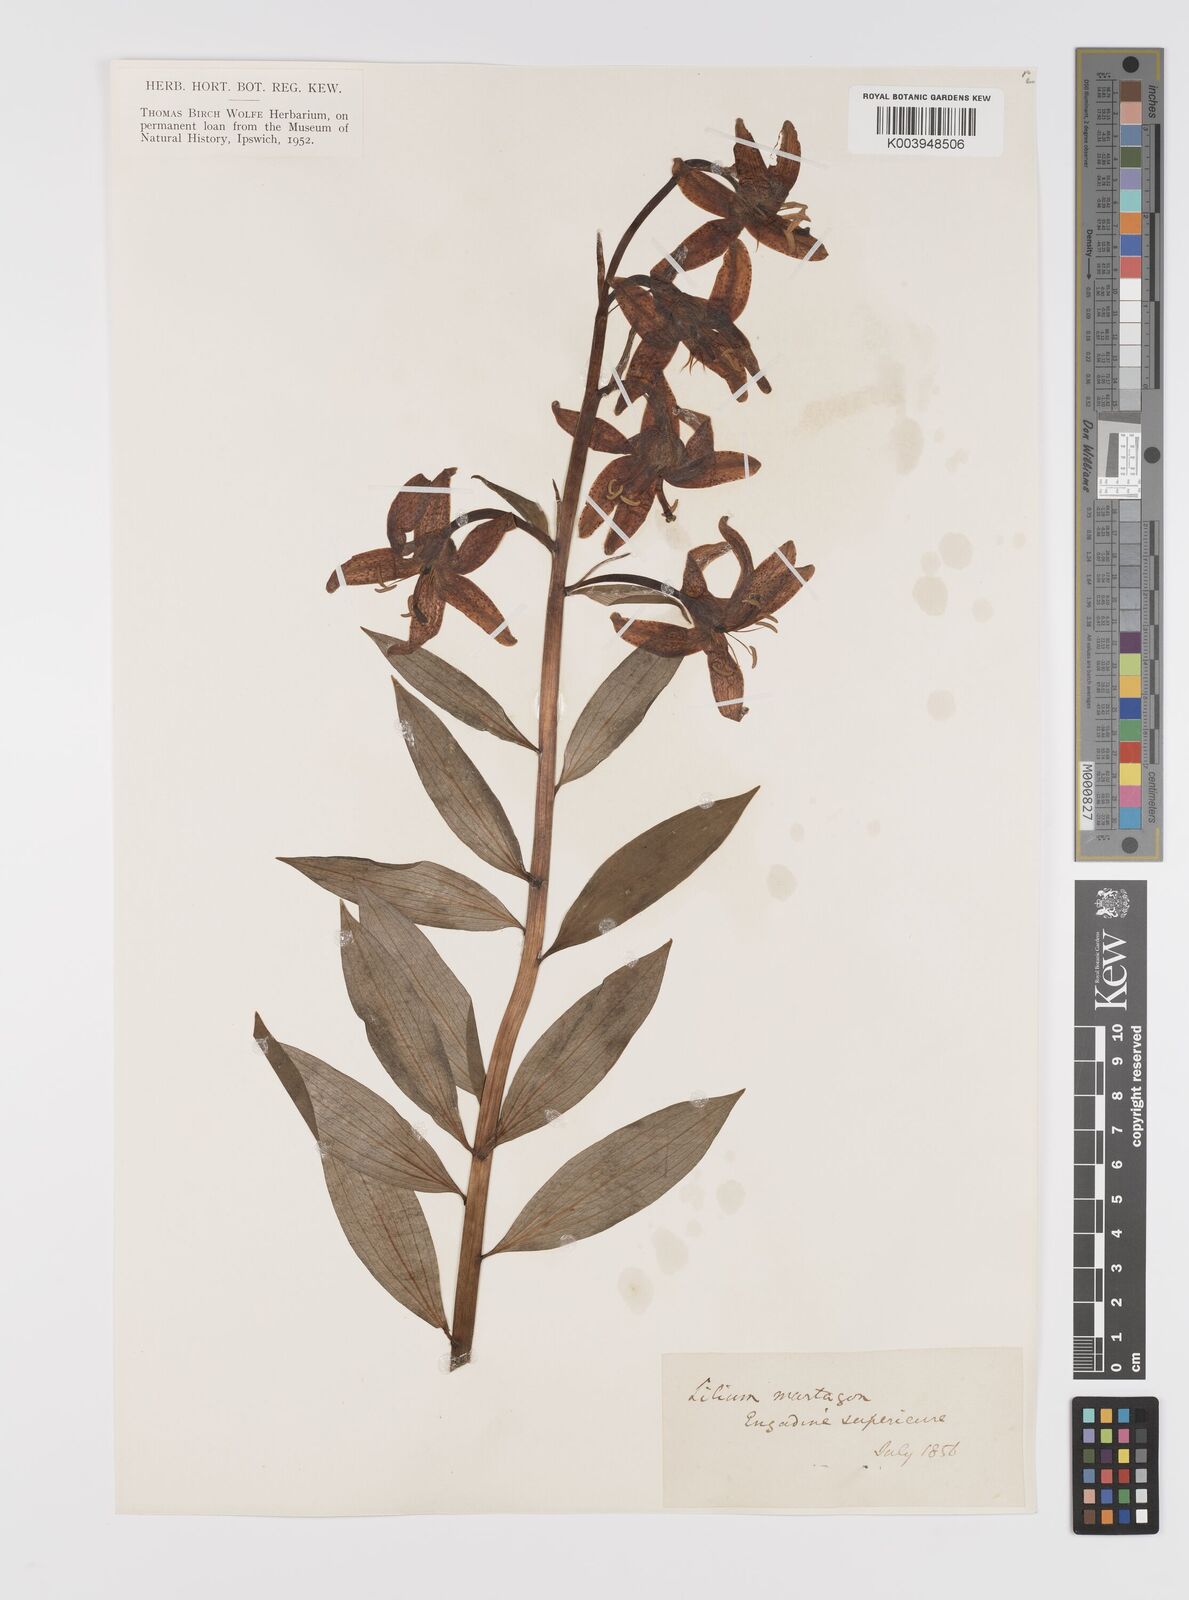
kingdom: Plantae
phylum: Tracheophyta
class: Liliopsida
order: Liliales
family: Liliaceae
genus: Lilium
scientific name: Lilium martagon
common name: Martagon lily
